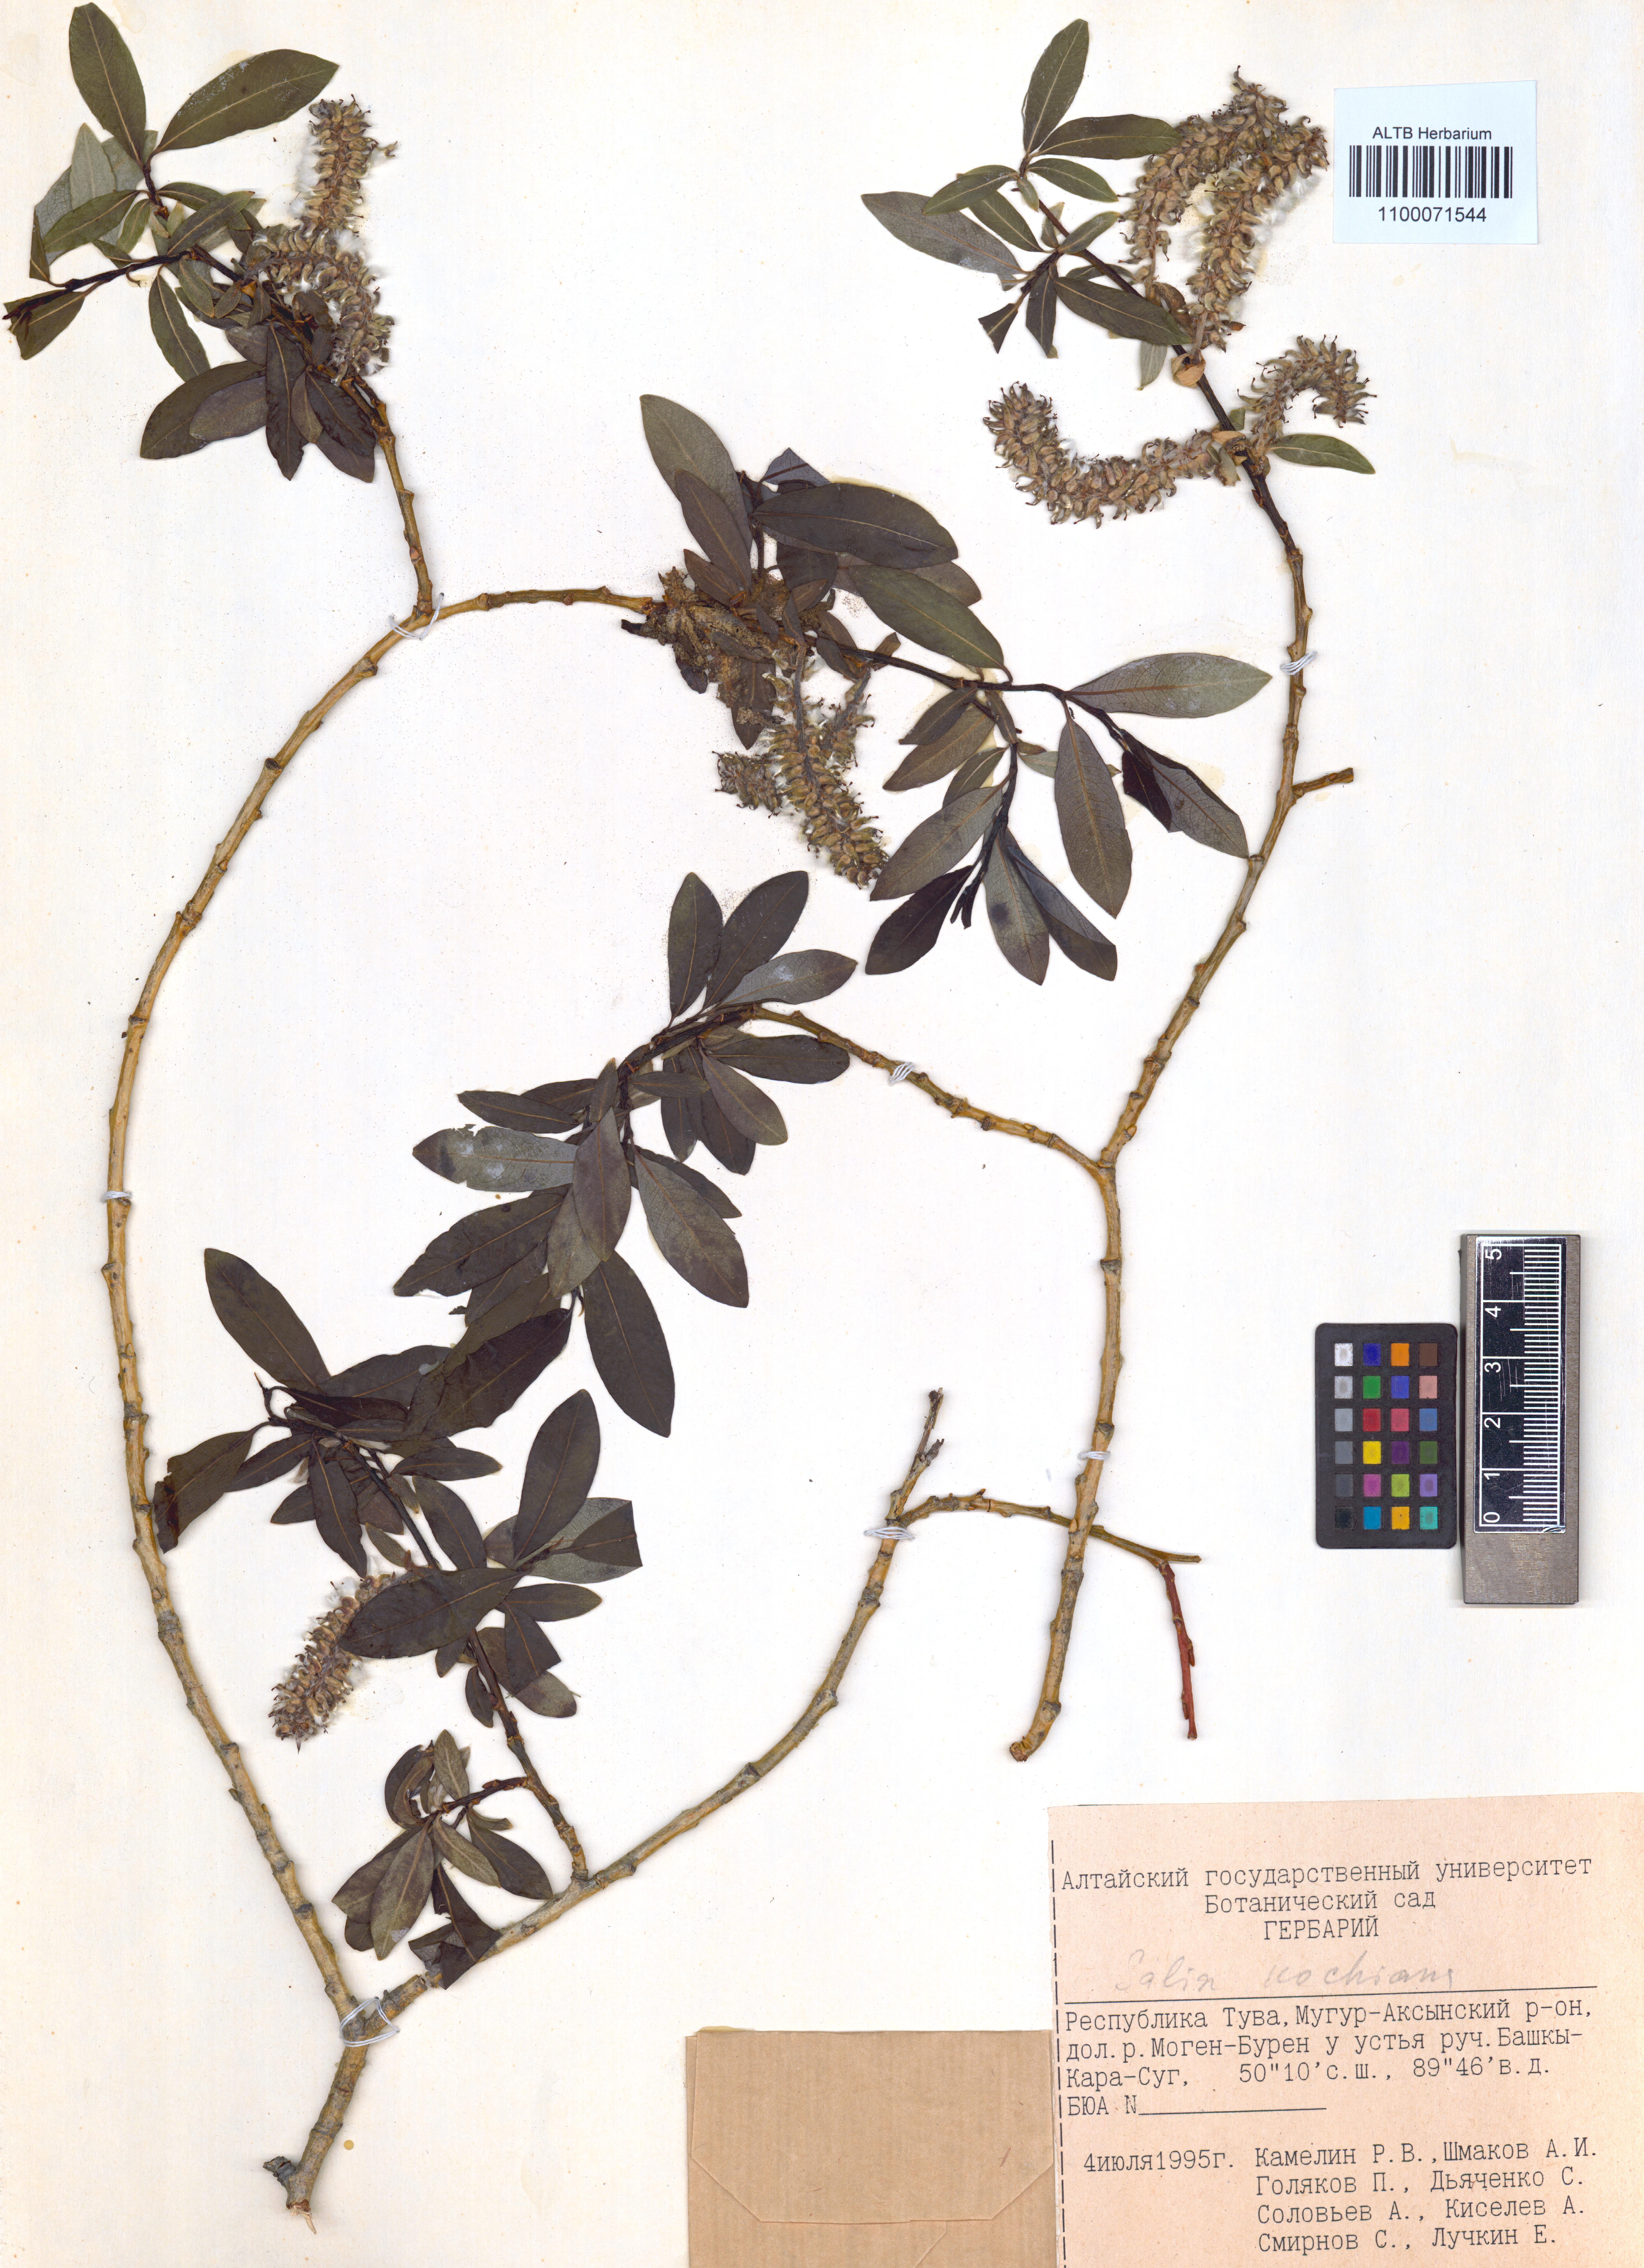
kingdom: Plantae
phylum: Tracheophyta
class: Magnoliopsida
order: Malpighiales
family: Salicaceae
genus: Salix
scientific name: Salix kochiana
